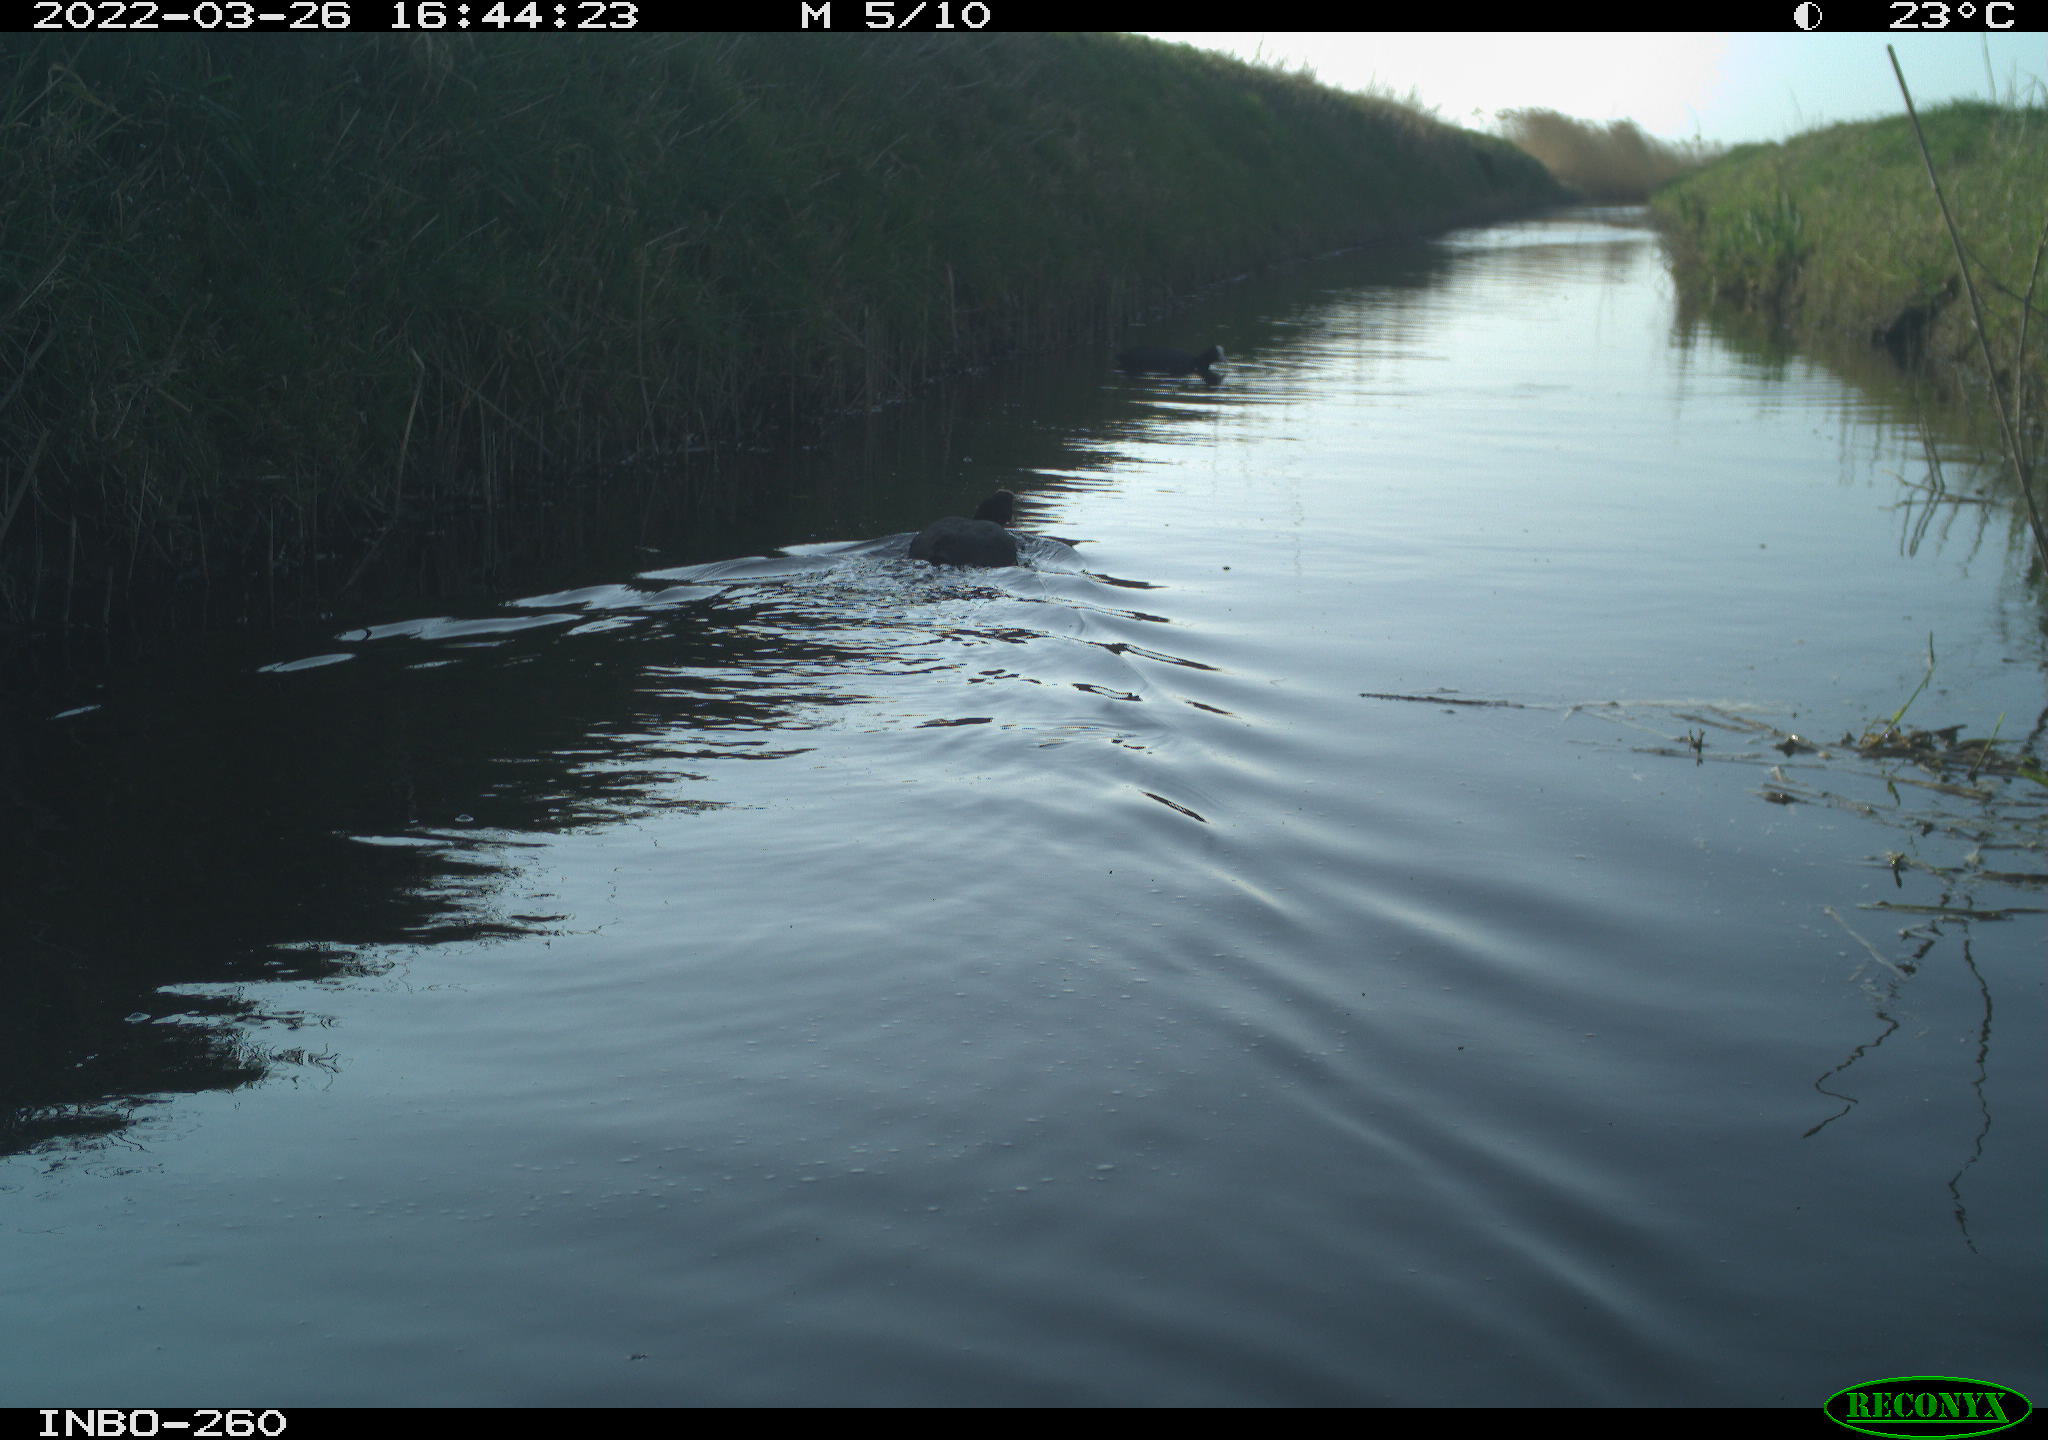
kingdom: Animalia
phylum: Chordata
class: Aves
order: Gruiformes
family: Rallidae
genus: Fulica
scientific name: Fulica atra
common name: Eurasian coot
